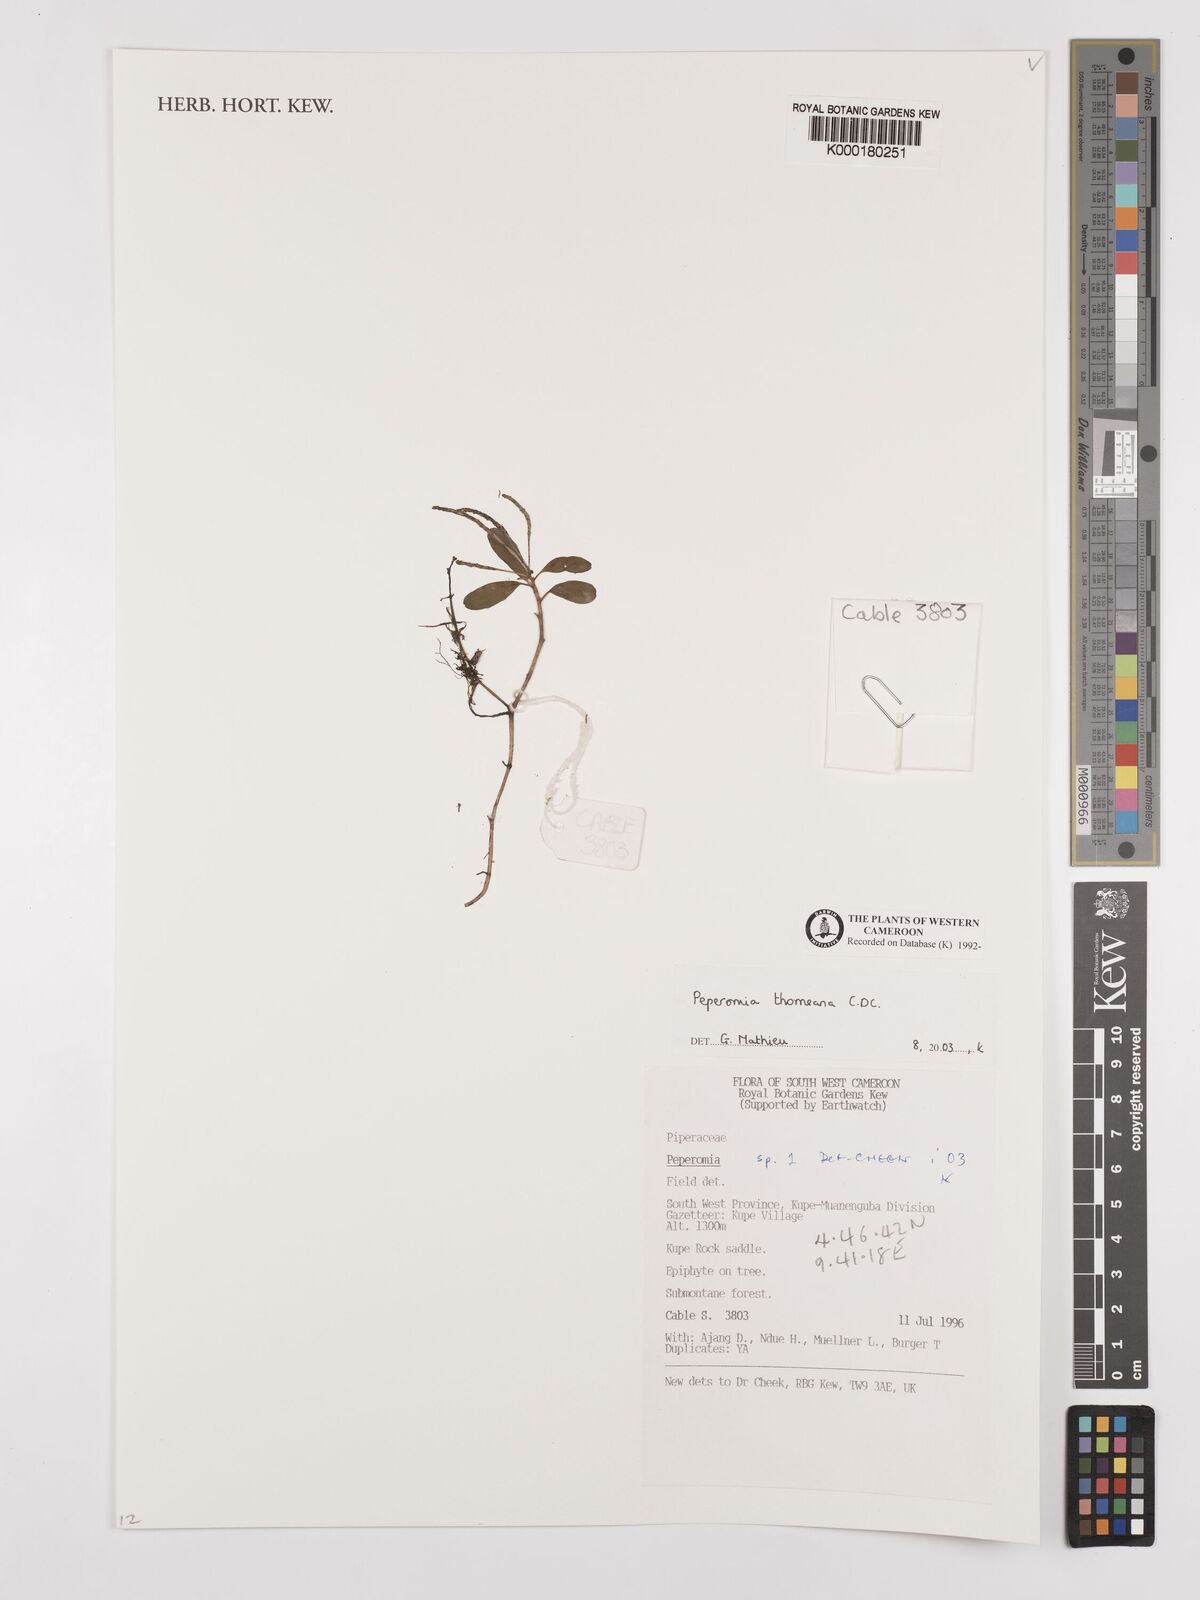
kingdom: Plantae
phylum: Tracheophyta
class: Magnoliopsida
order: Piperales
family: Piperaceae
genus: Peperomia
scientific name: Peperomia thomeana
